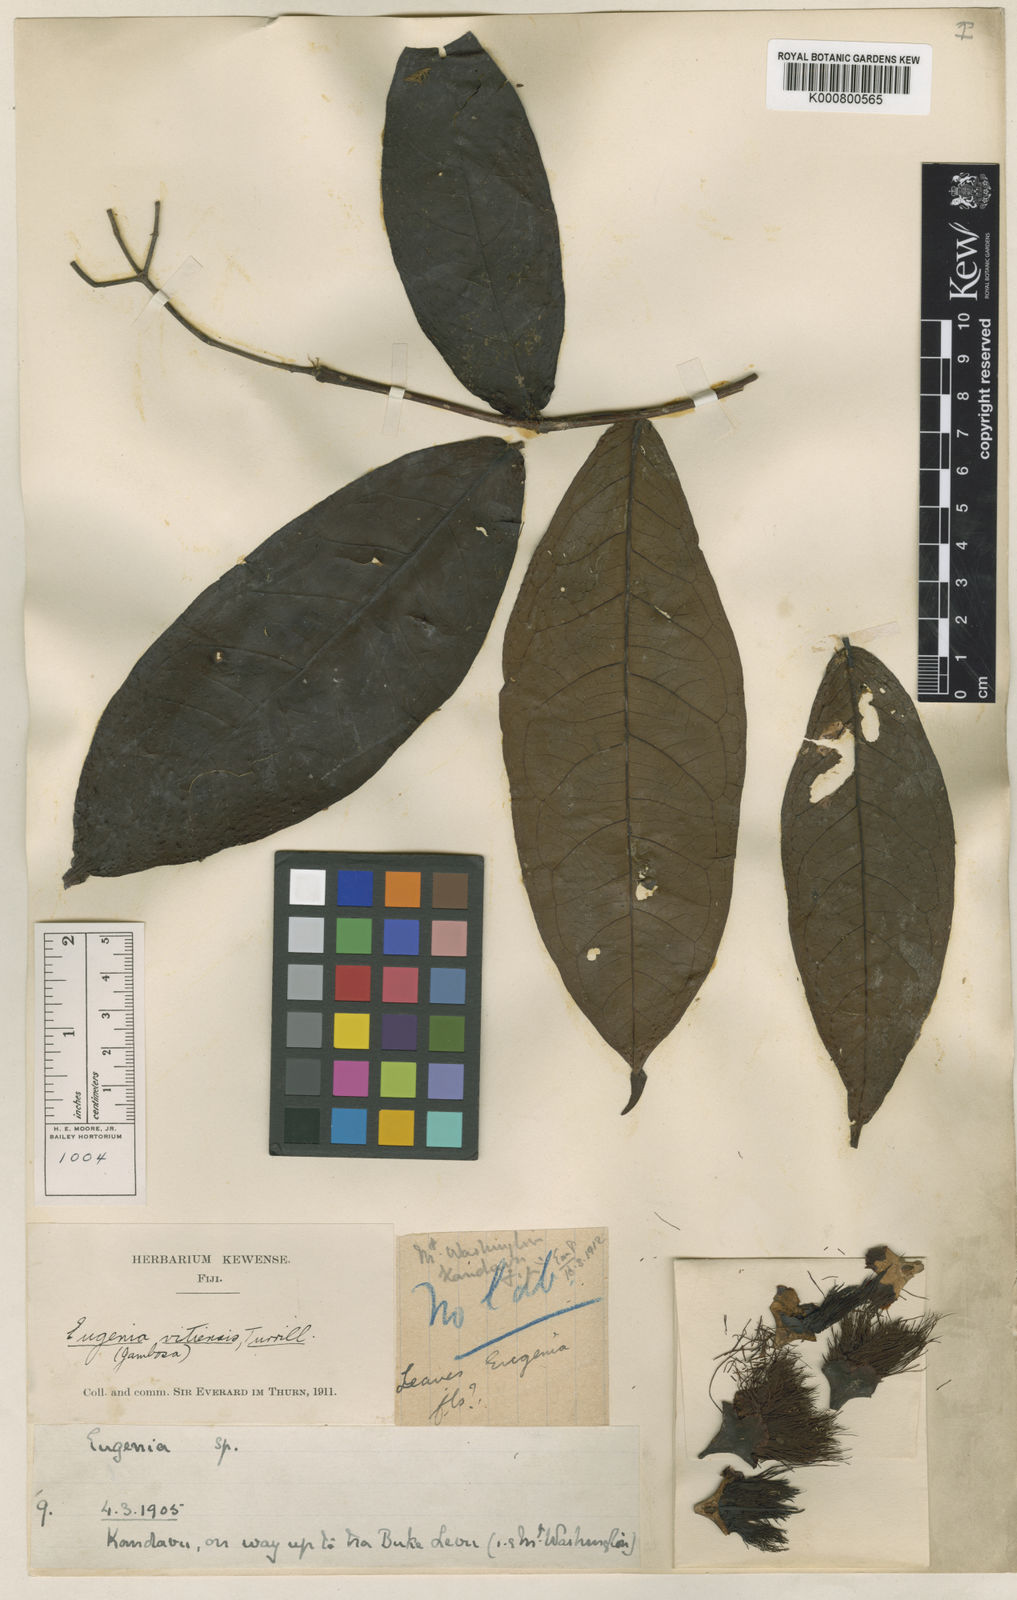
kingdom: Plantae
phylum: Tracheophyta
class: Magnoliopsida
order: Myrtales
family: Myrtaceae
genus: Syzygium
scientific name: Syzygium gracilipes
